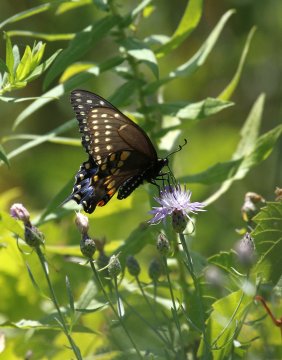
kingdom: Animalia
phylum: Arthropoda
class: Insecta
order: Lepidoptera
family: Papilionidae
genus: Papilio
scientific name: Papilio polyxenes
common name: Black Swallowtail
